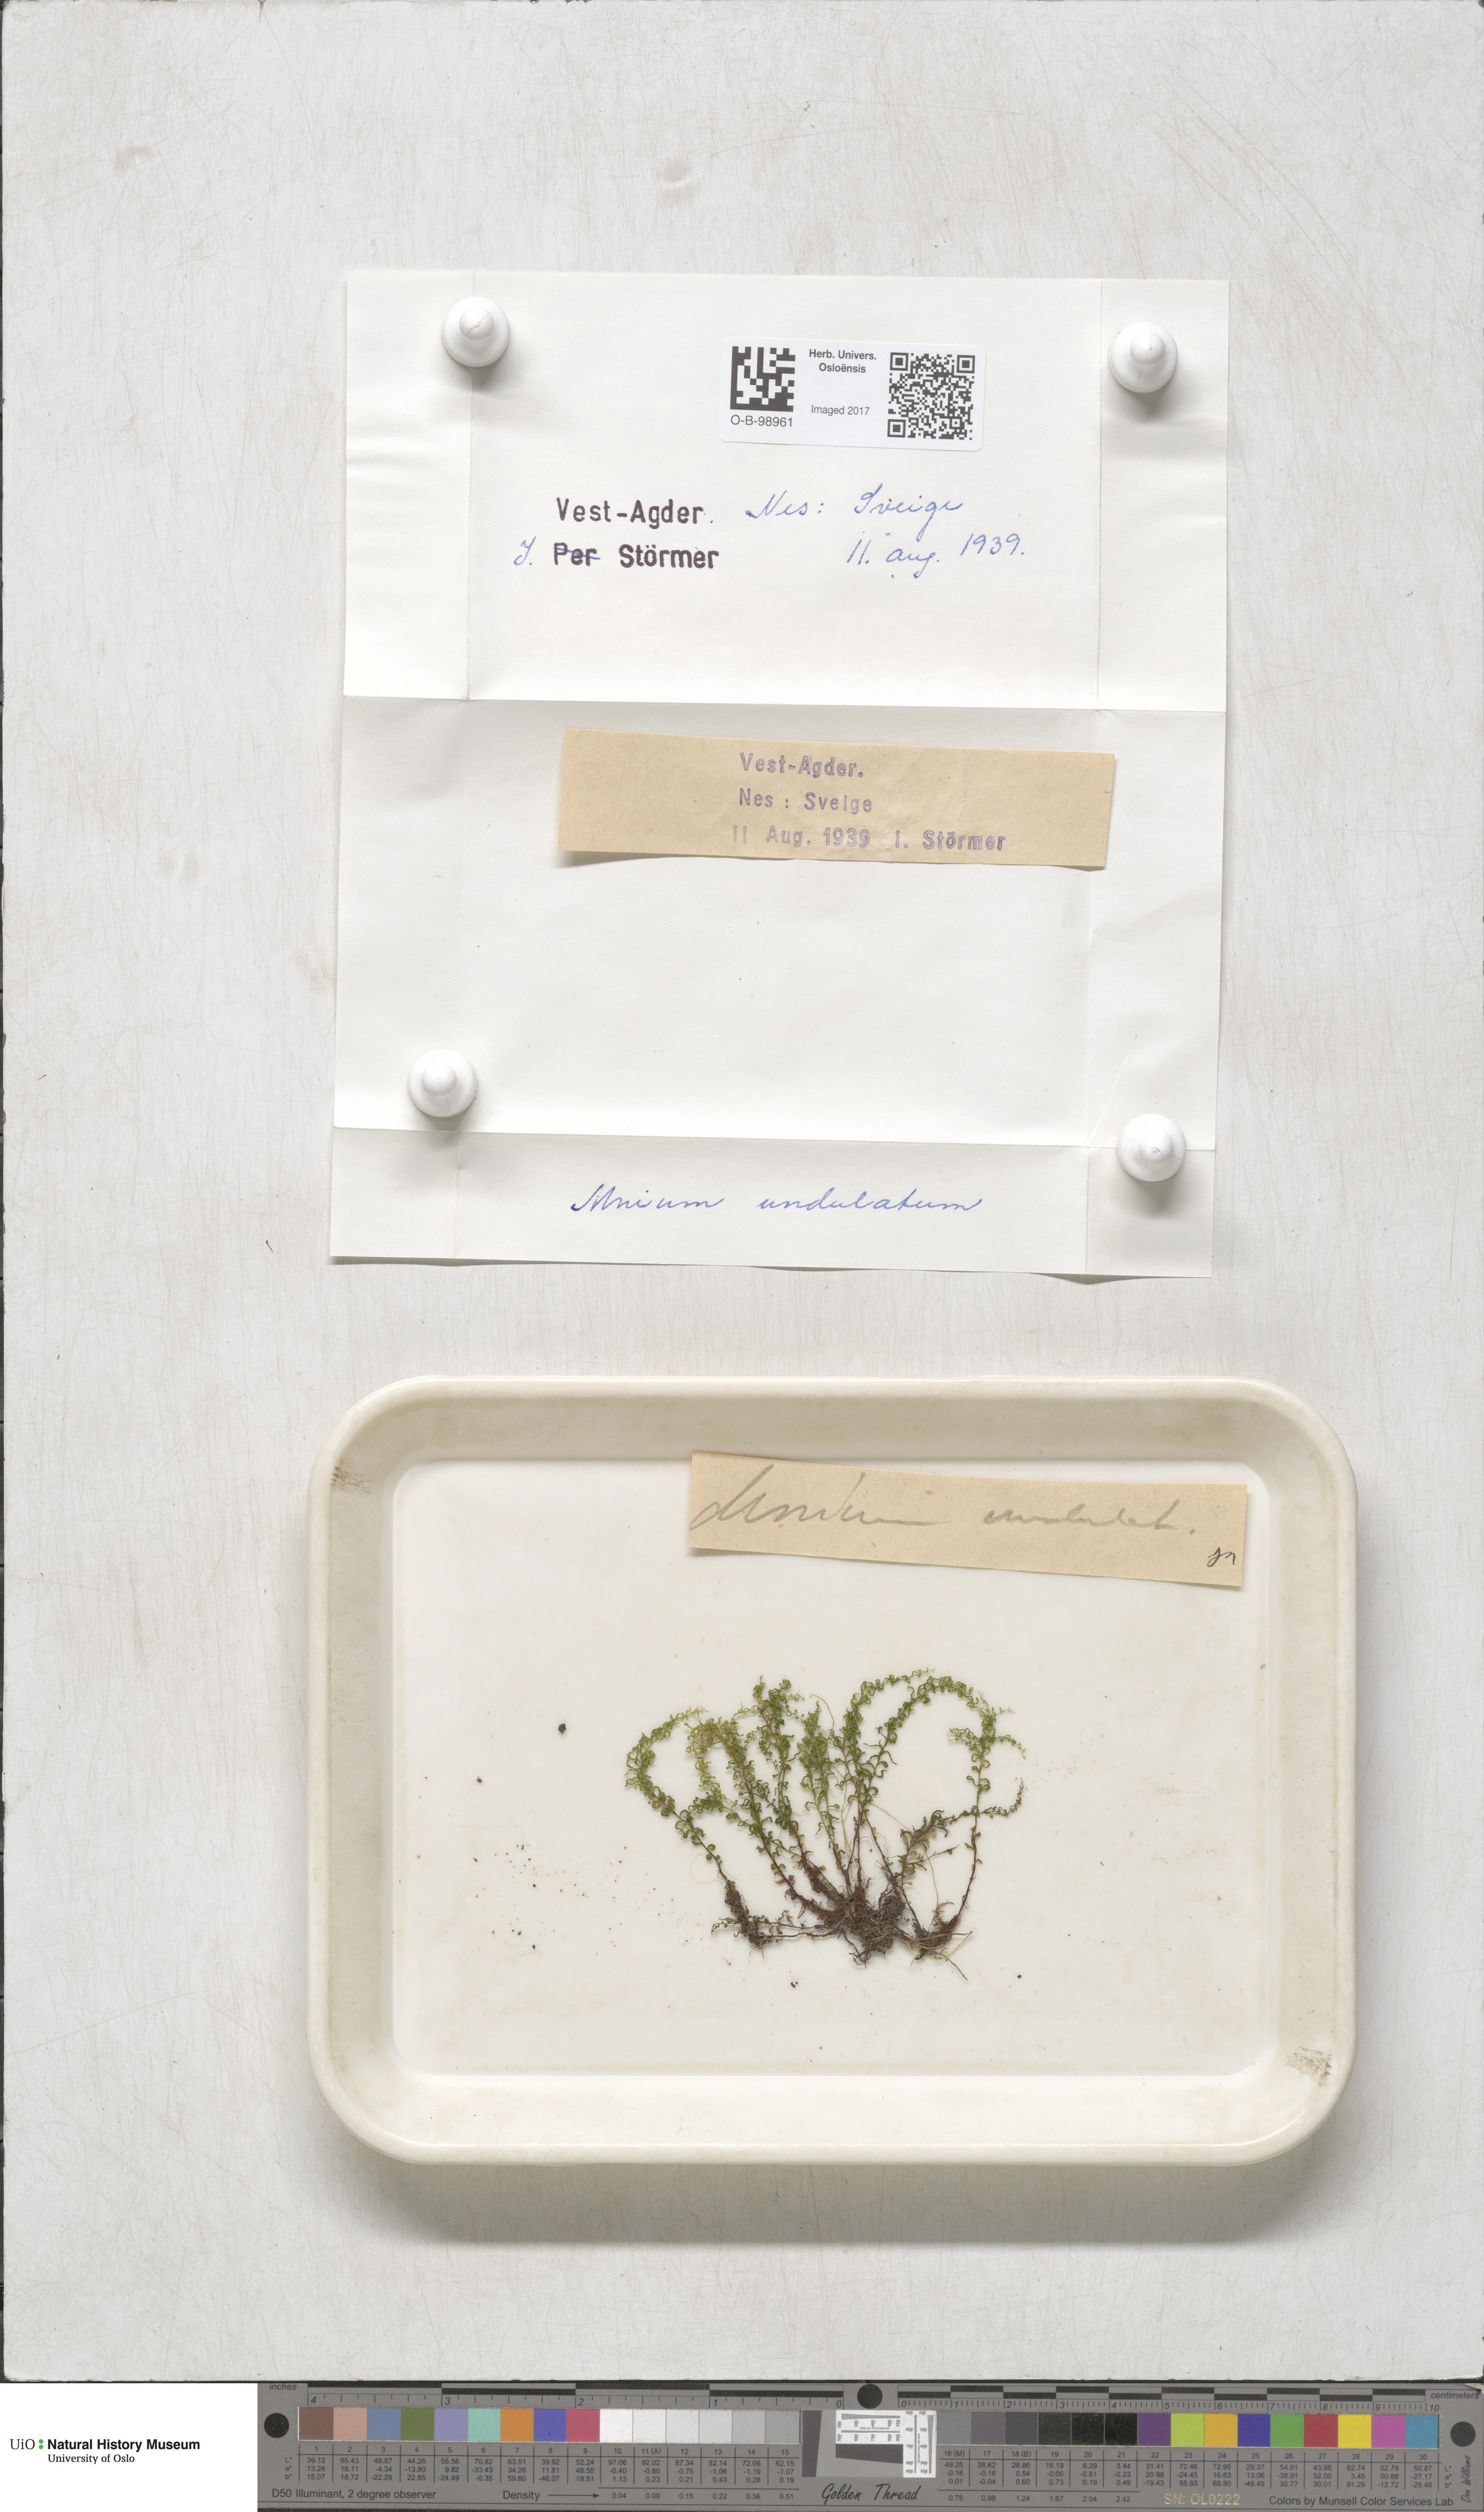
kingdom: Plantae
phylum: Bryophyta
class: Bryopsida
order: Bryales
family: Mniaceae
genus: Plagiomnium
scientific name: Plagiomnium undulatum
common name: Hart's-tongue thyme-moss
